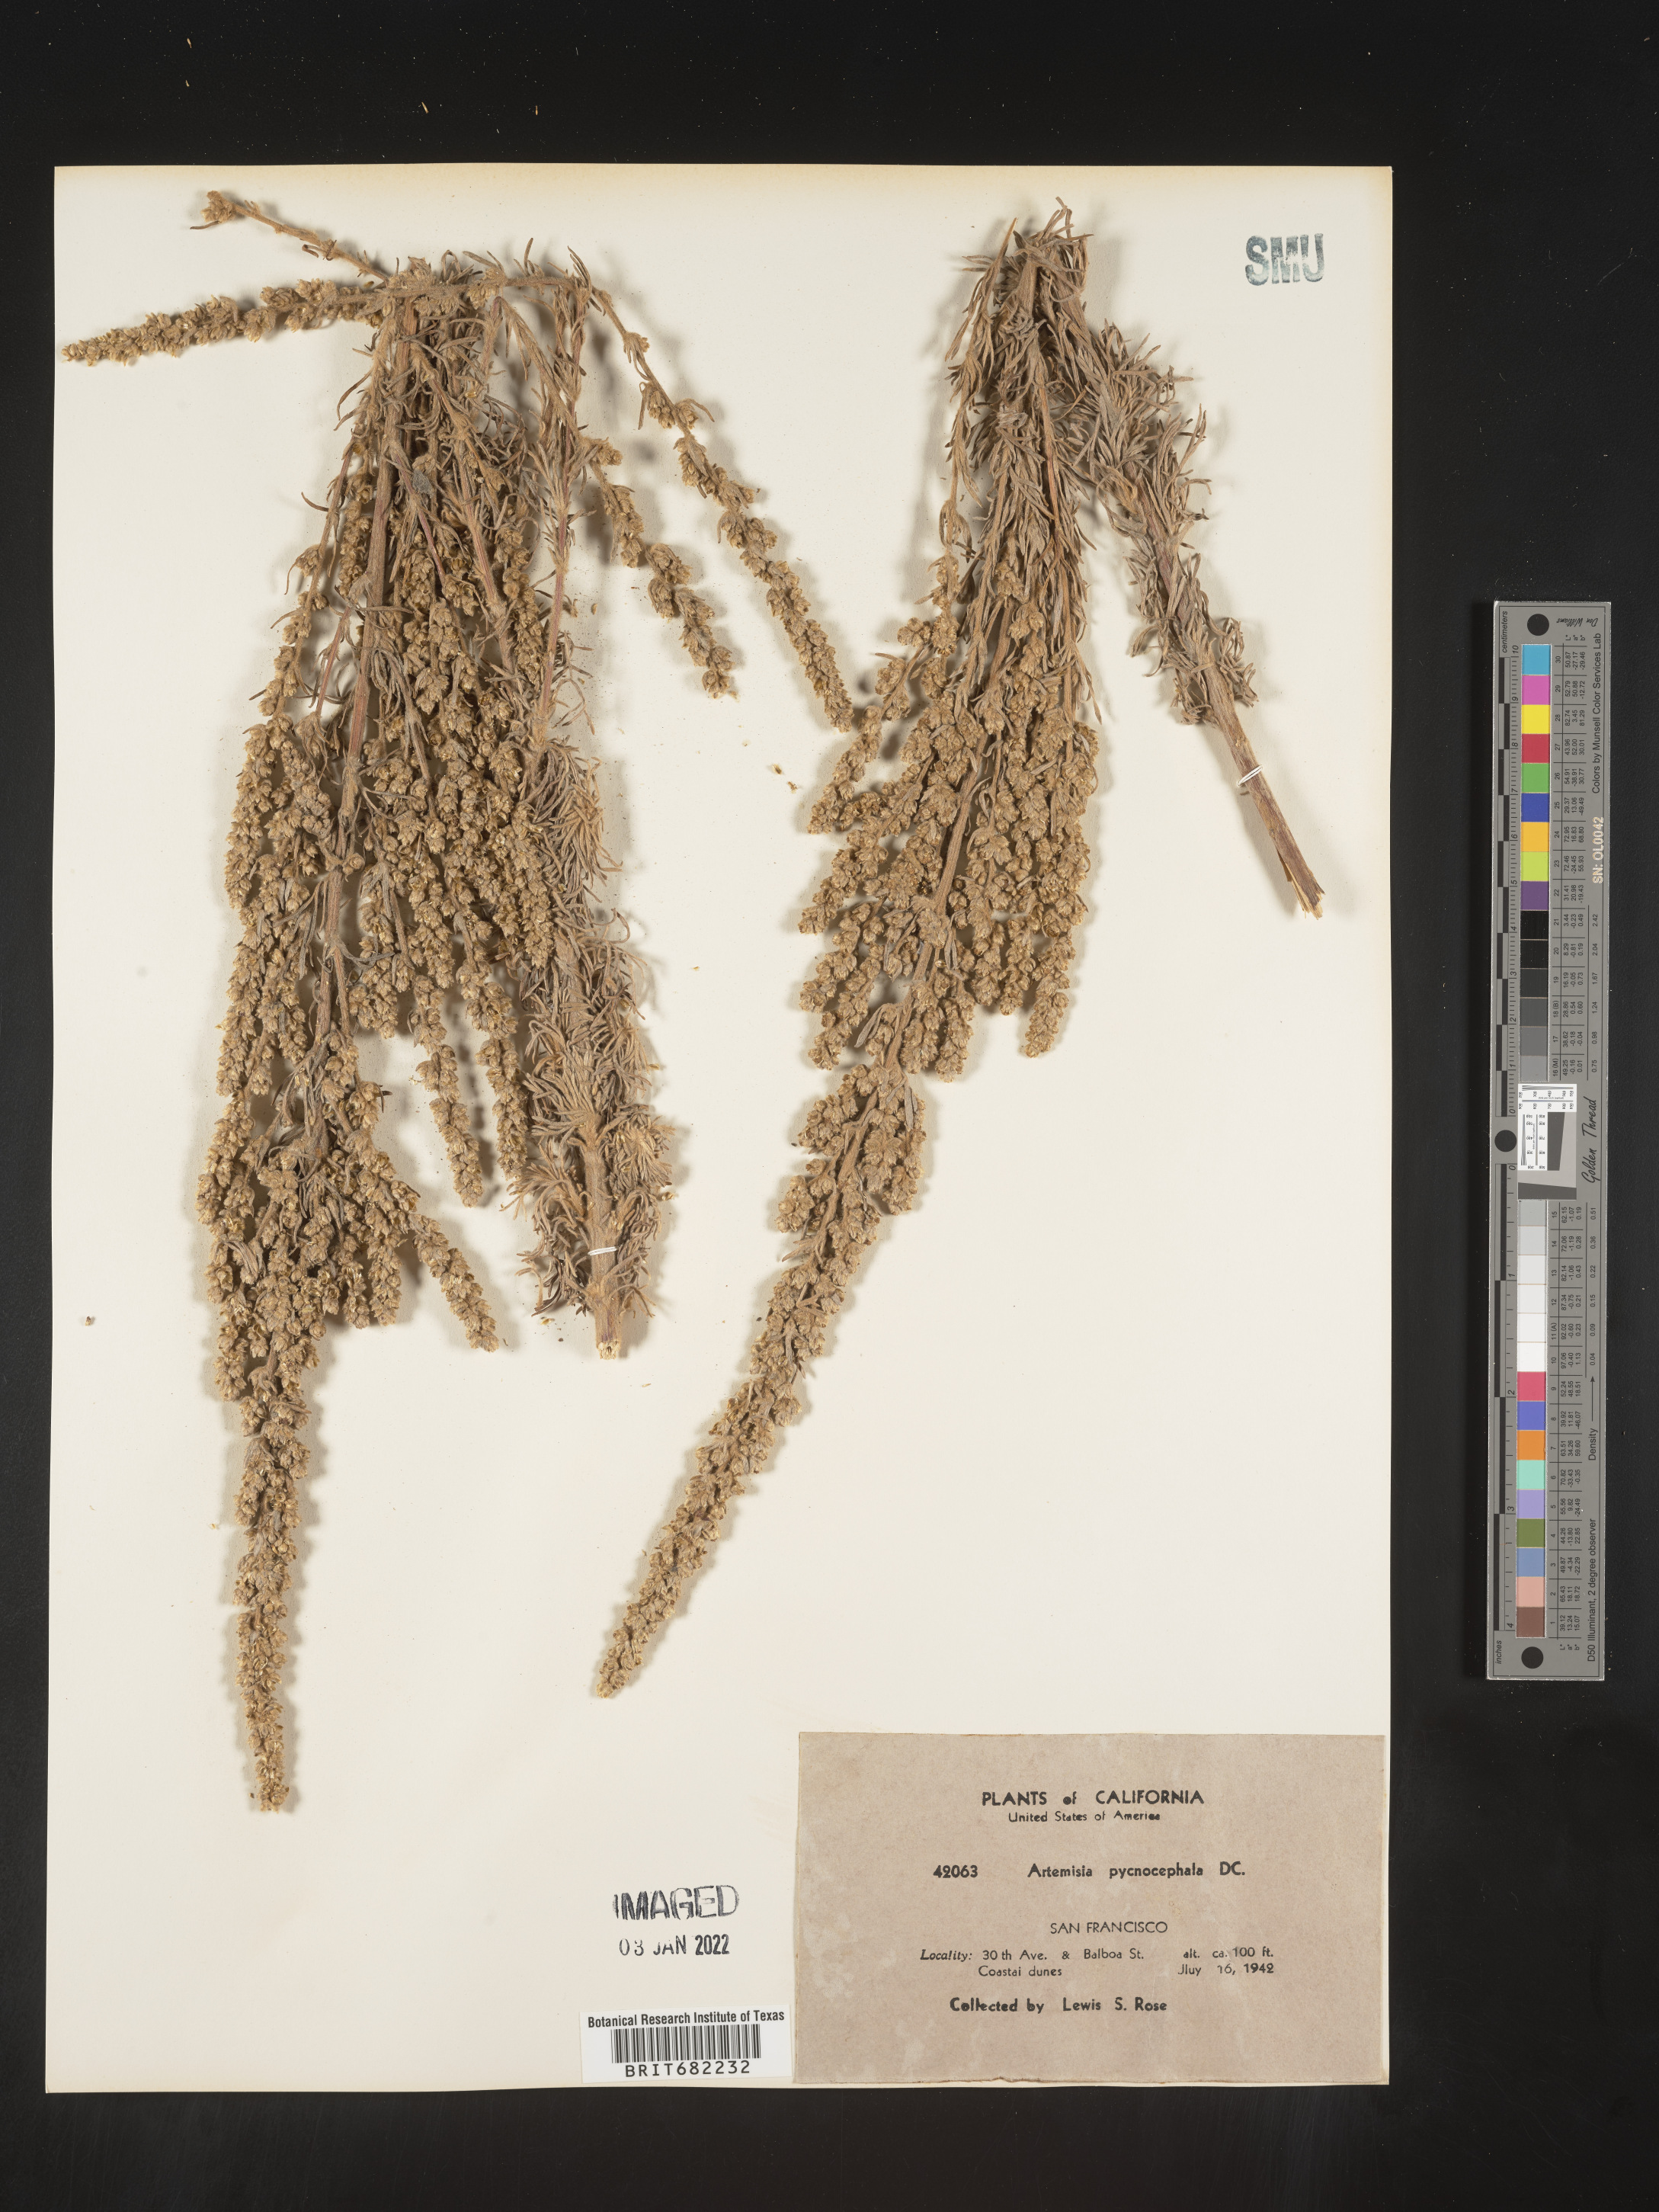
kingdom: Plantae
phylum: Tracheophyta
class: Magnoliopsida
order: Asterales
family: Asteraceae
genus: Artemisia
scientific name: Artemisia pycnocephala
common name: Coastal sagewort
